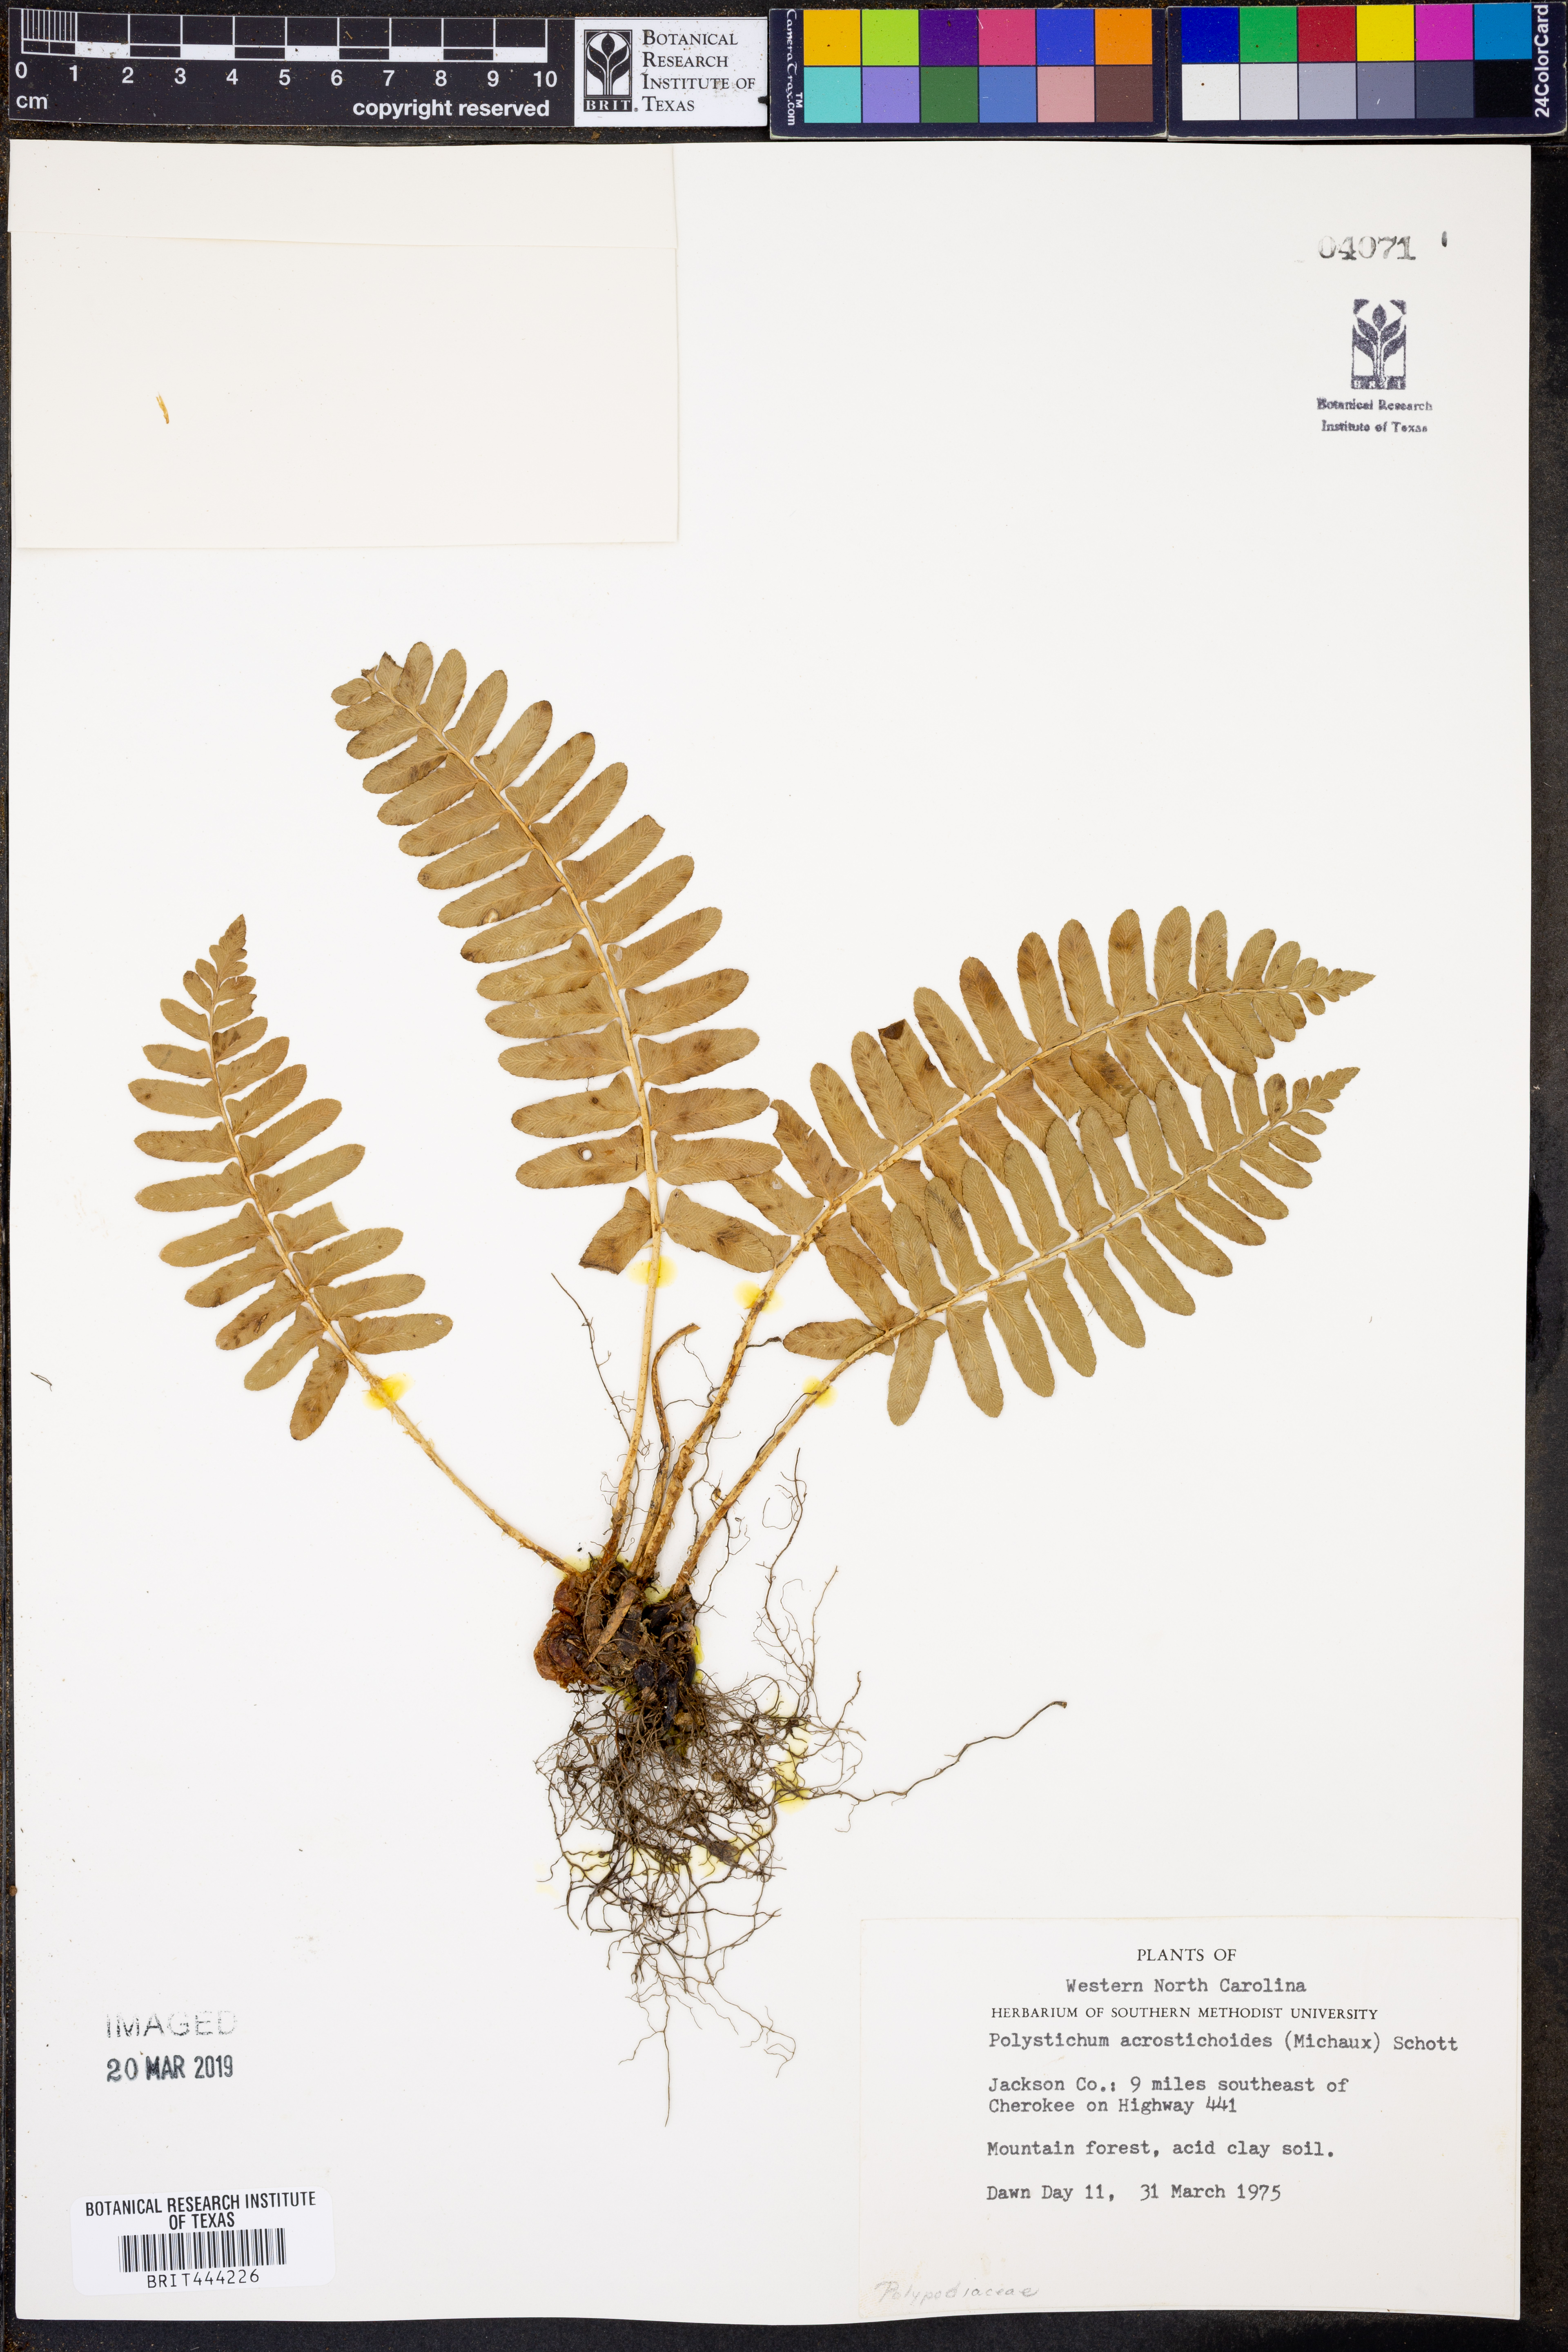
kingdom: Plantae
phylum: Tracheophyta
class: Polypodiopsida
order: Polypodiales
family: Dryopteridaceae
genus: Polystichum
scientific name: Polystichum acrostichoides
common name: Christmas fern
